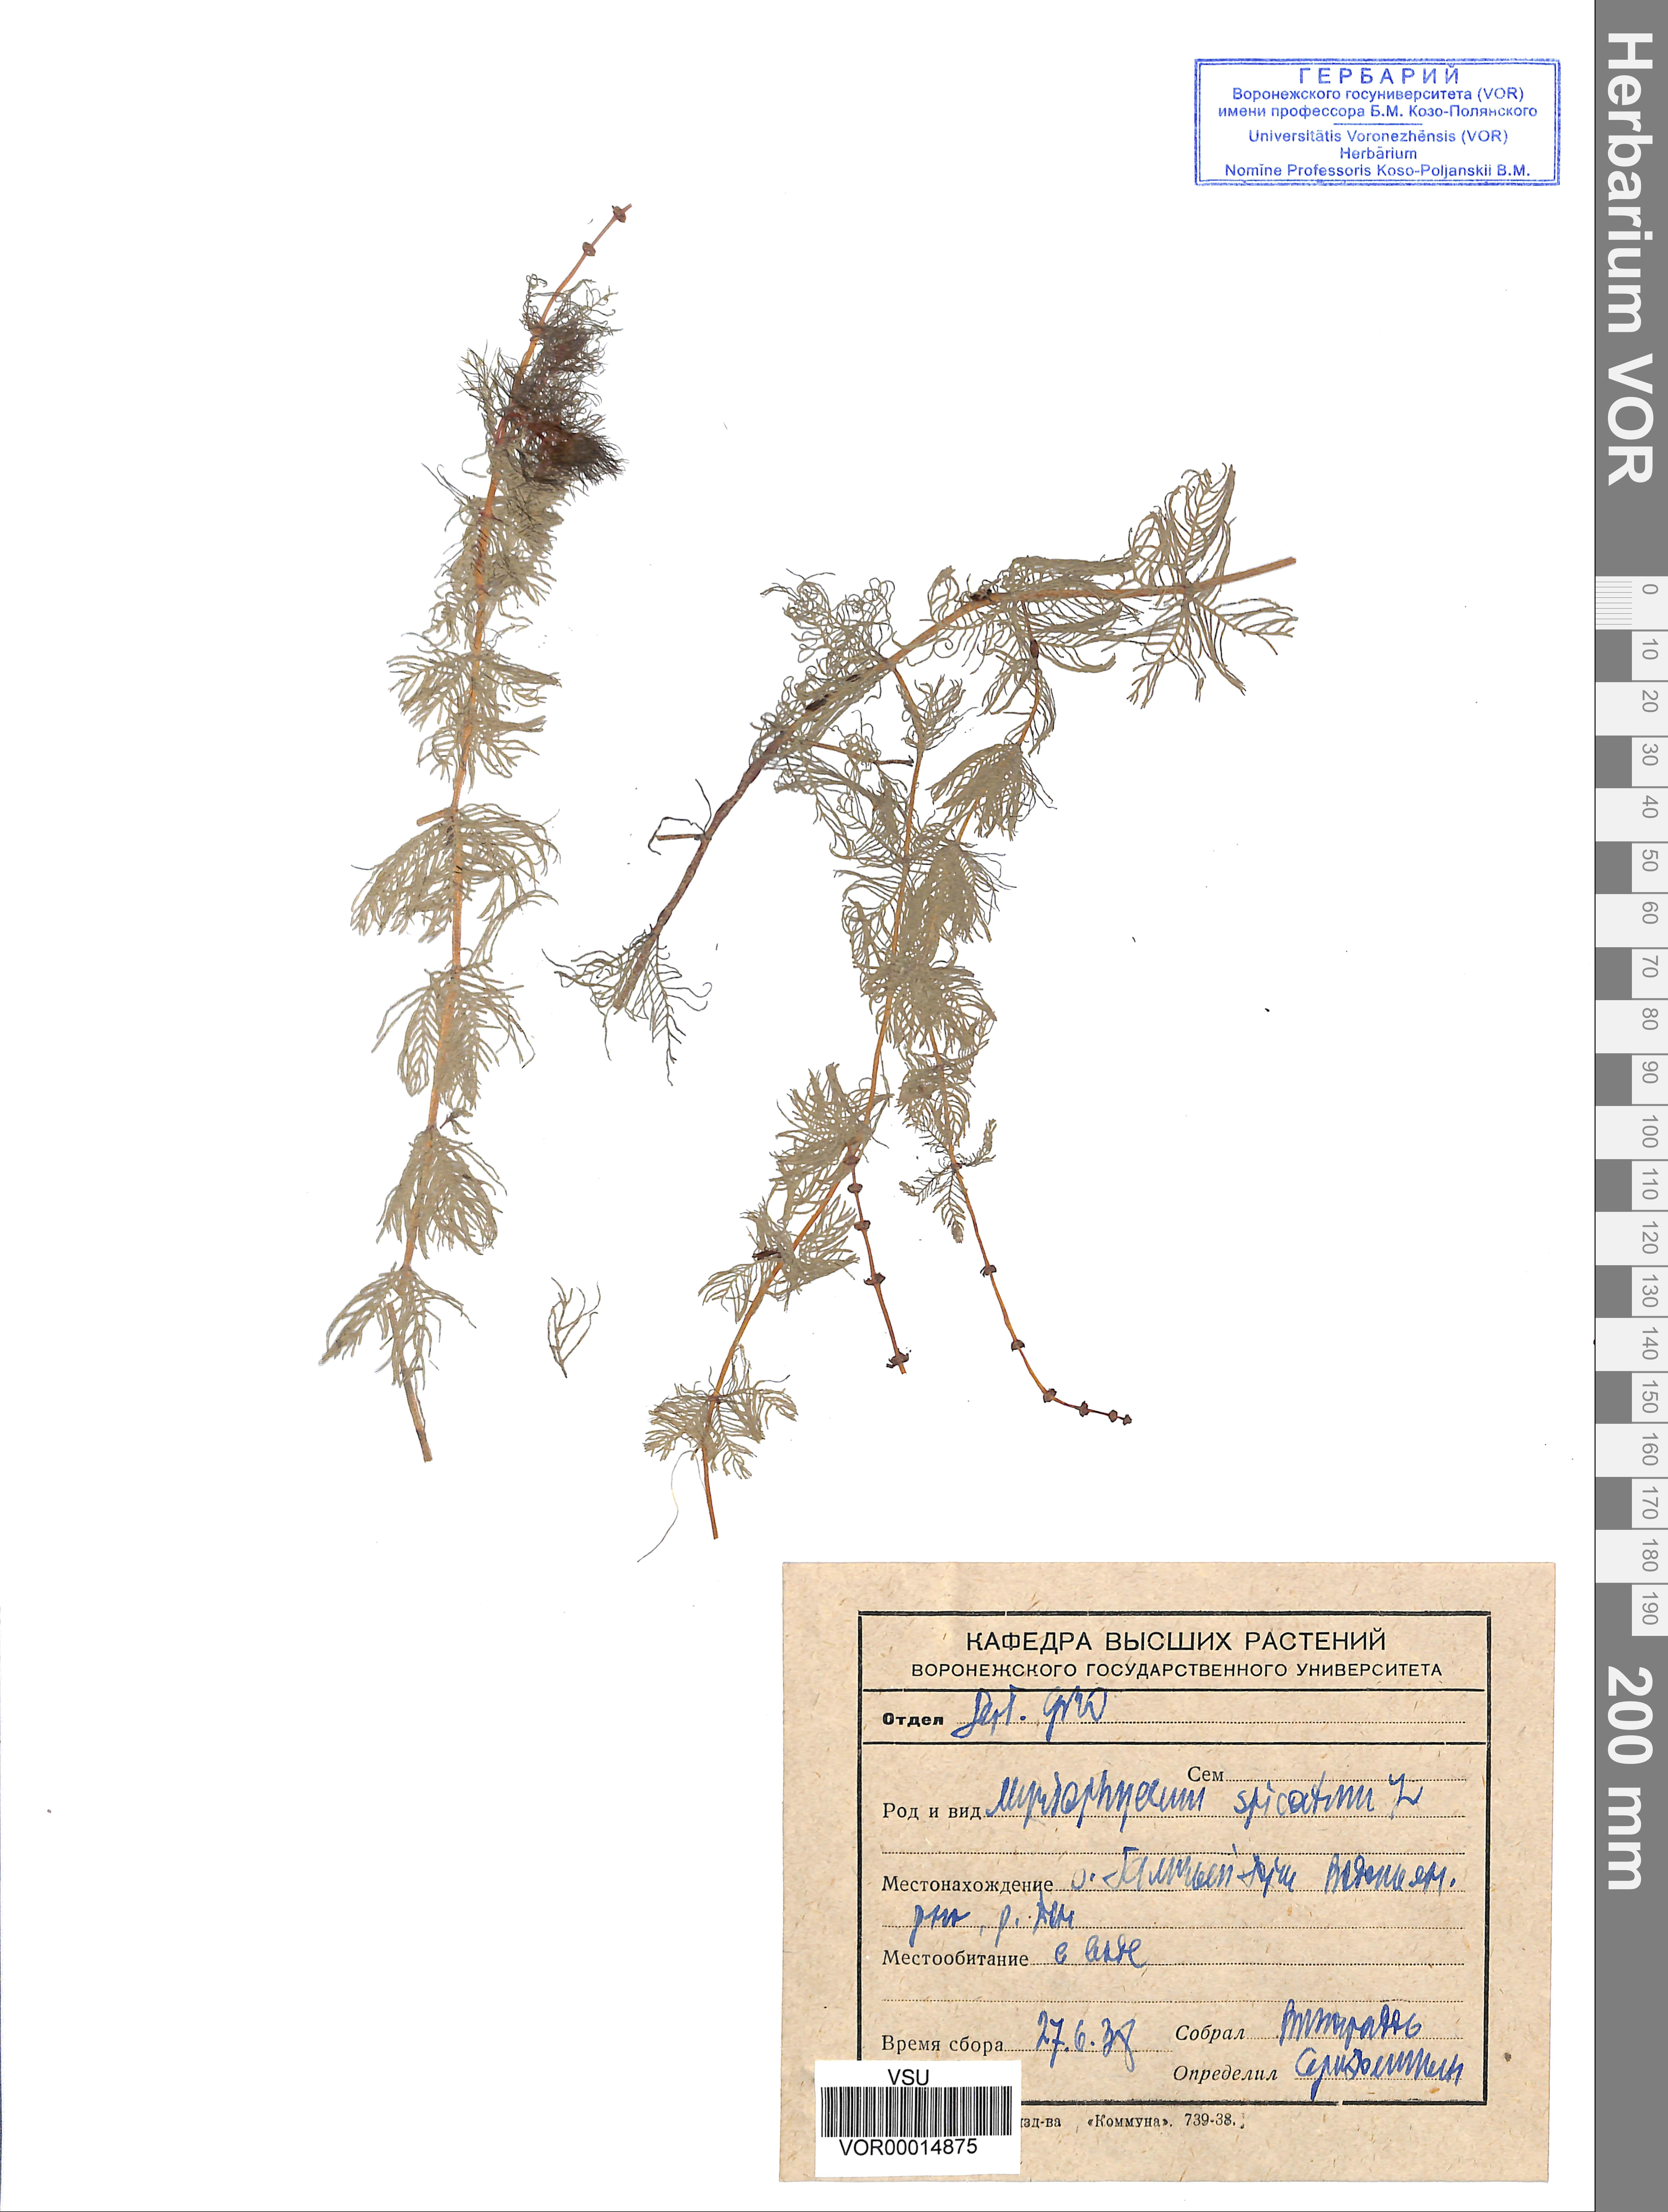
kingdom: Plantae
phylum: Tracheophyta
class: Magnoliopsida
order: Saxifragales
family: Haloragaceae
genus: Myriophyllum
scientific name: Myriophyllum spicatum
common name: Spiked water-milfoil
